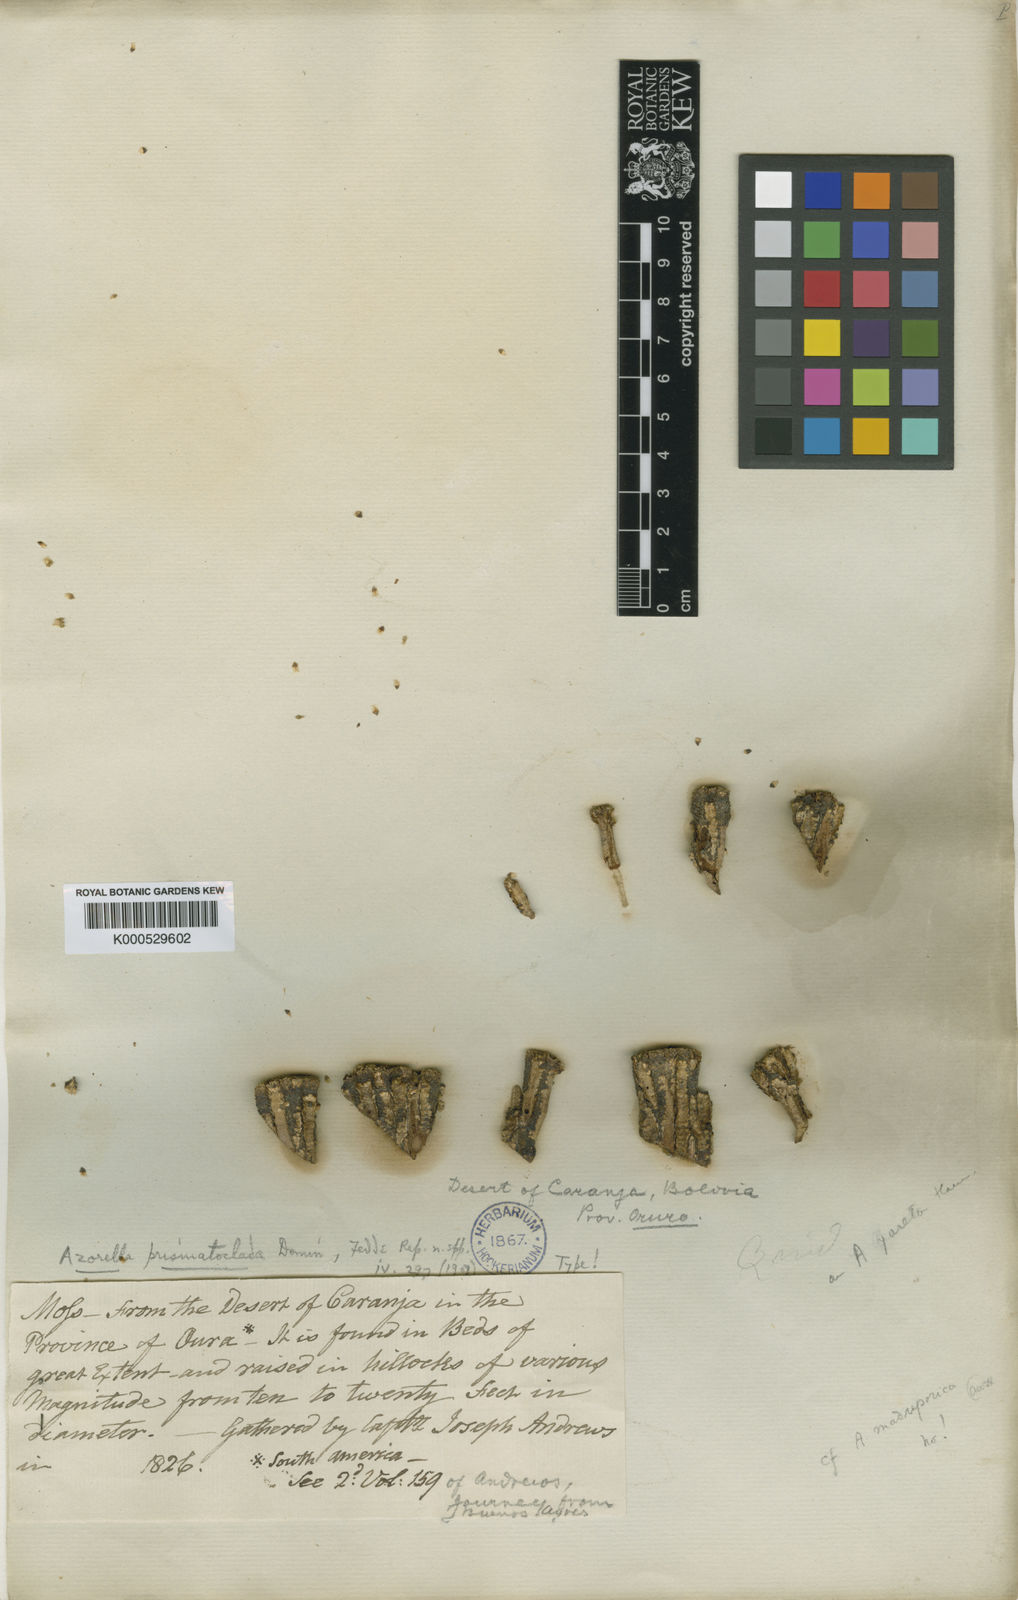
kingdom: Plantae
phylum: Tracheophyta
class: Magnoliopsida
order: Apiales
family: Apiaceae
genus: Azorella
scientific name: Azorella compacta
